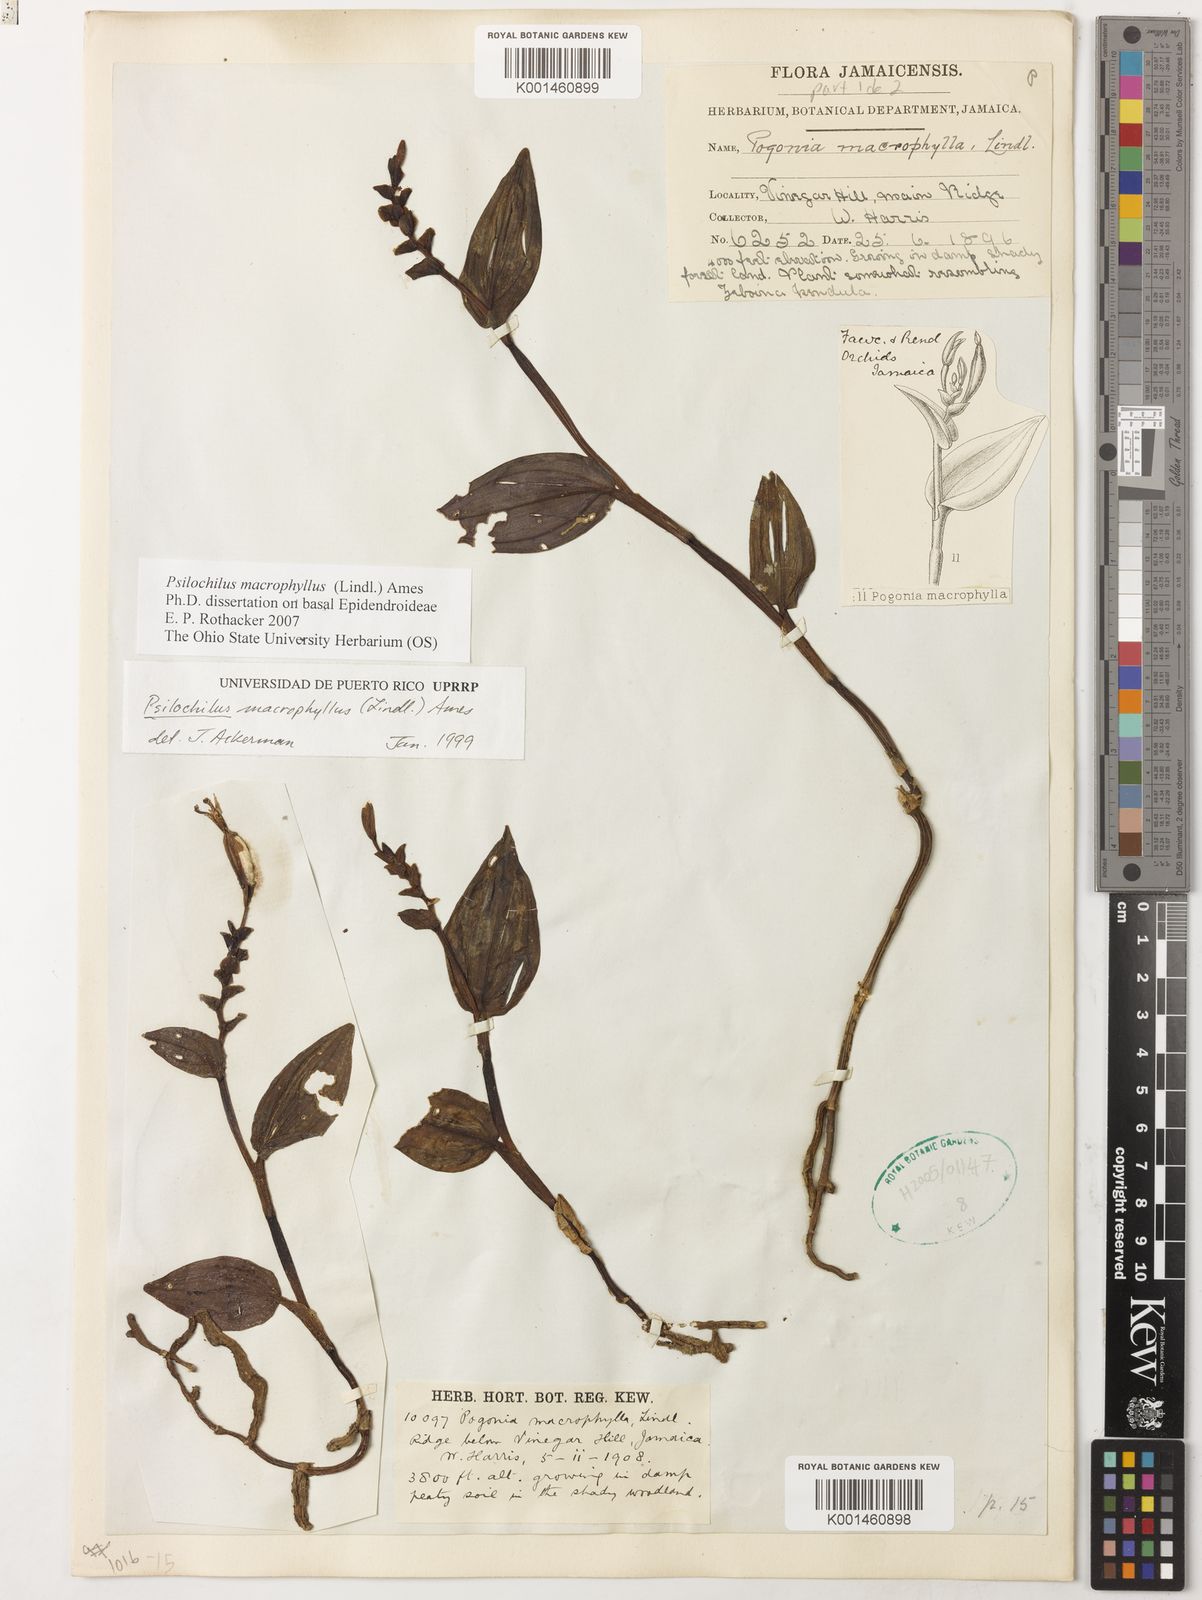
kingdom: Plantae
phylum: Tracheophyta
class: Liliopsida
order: Asparagales
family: Orchidaceae
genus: Psilochilus
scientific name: Psilochilus macrophyllus
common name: Raggedlip orchid
